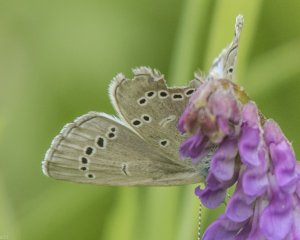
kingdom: Animalia
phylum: Arthropoda
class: Insecta
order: Lepidoptera
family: Lycaenidae
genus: Glaucopsyche
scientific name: Glaucopsyche lygdamus
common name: Silvery Blue
